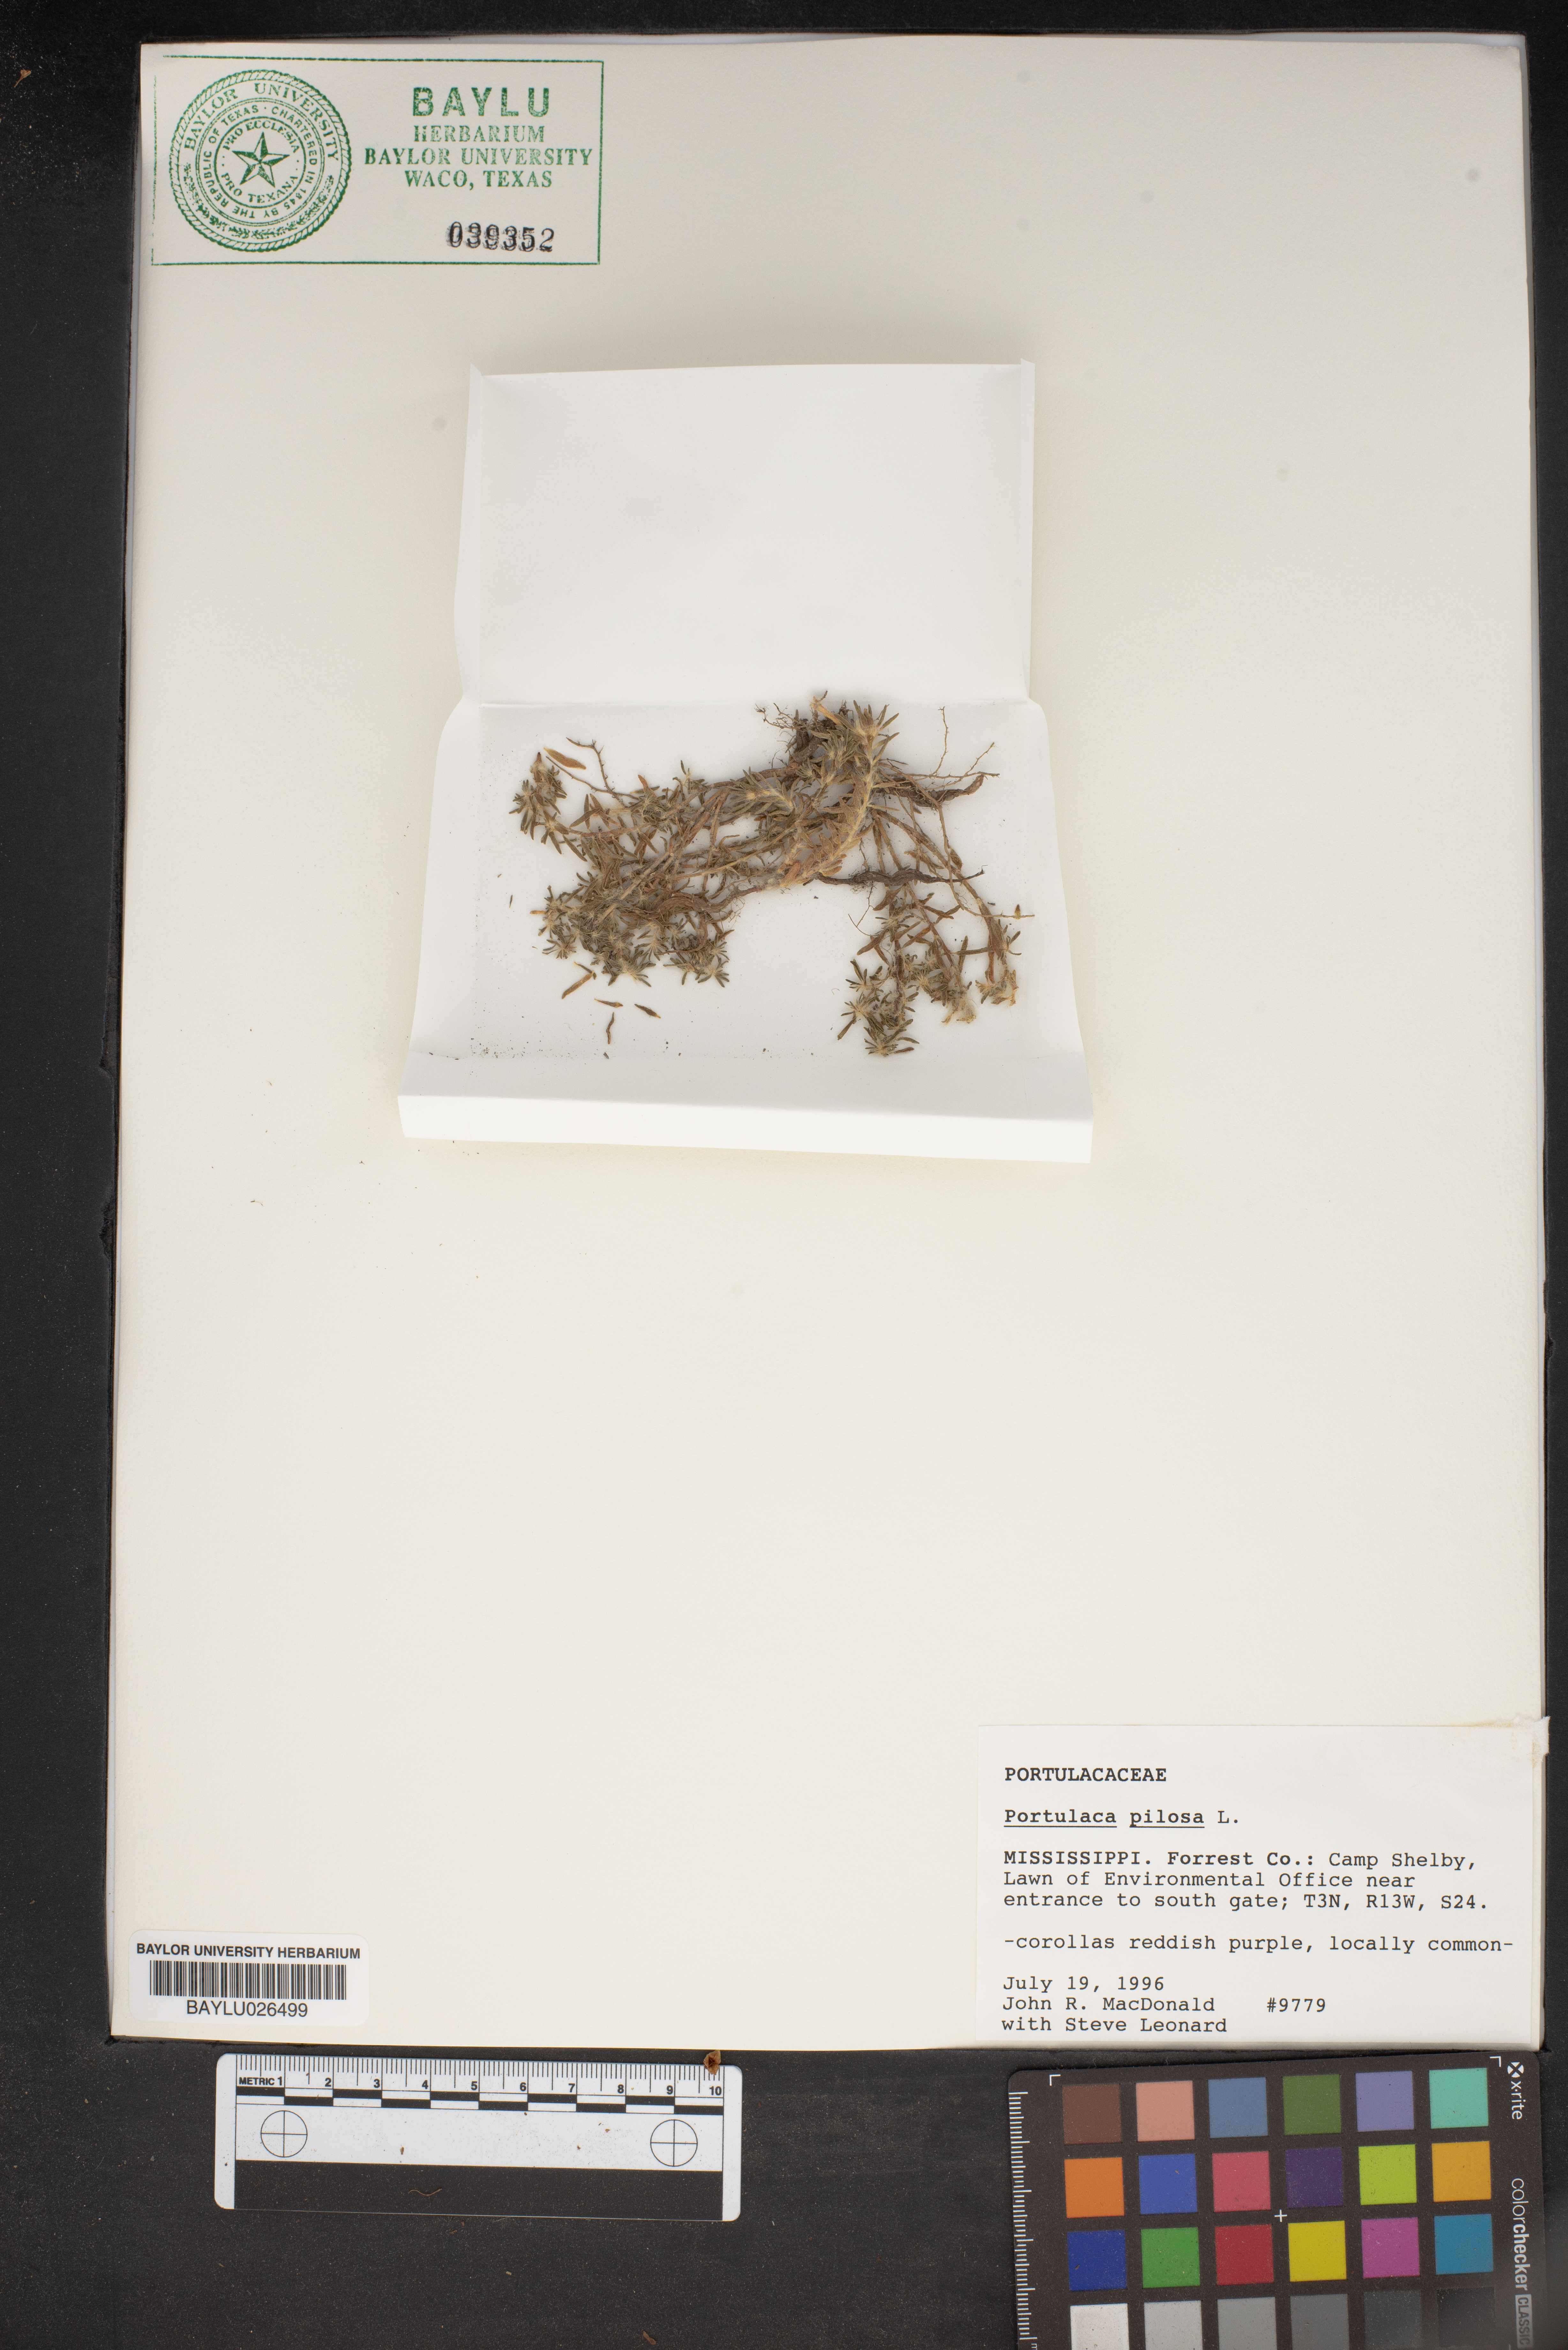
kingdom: Plantae
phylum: Tracheophyta
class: Magnoliopsida
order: Caryophyllales
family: Portulacaceae
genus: Portulaca
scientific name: Portulaca pilosa
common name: Kiss me quick
